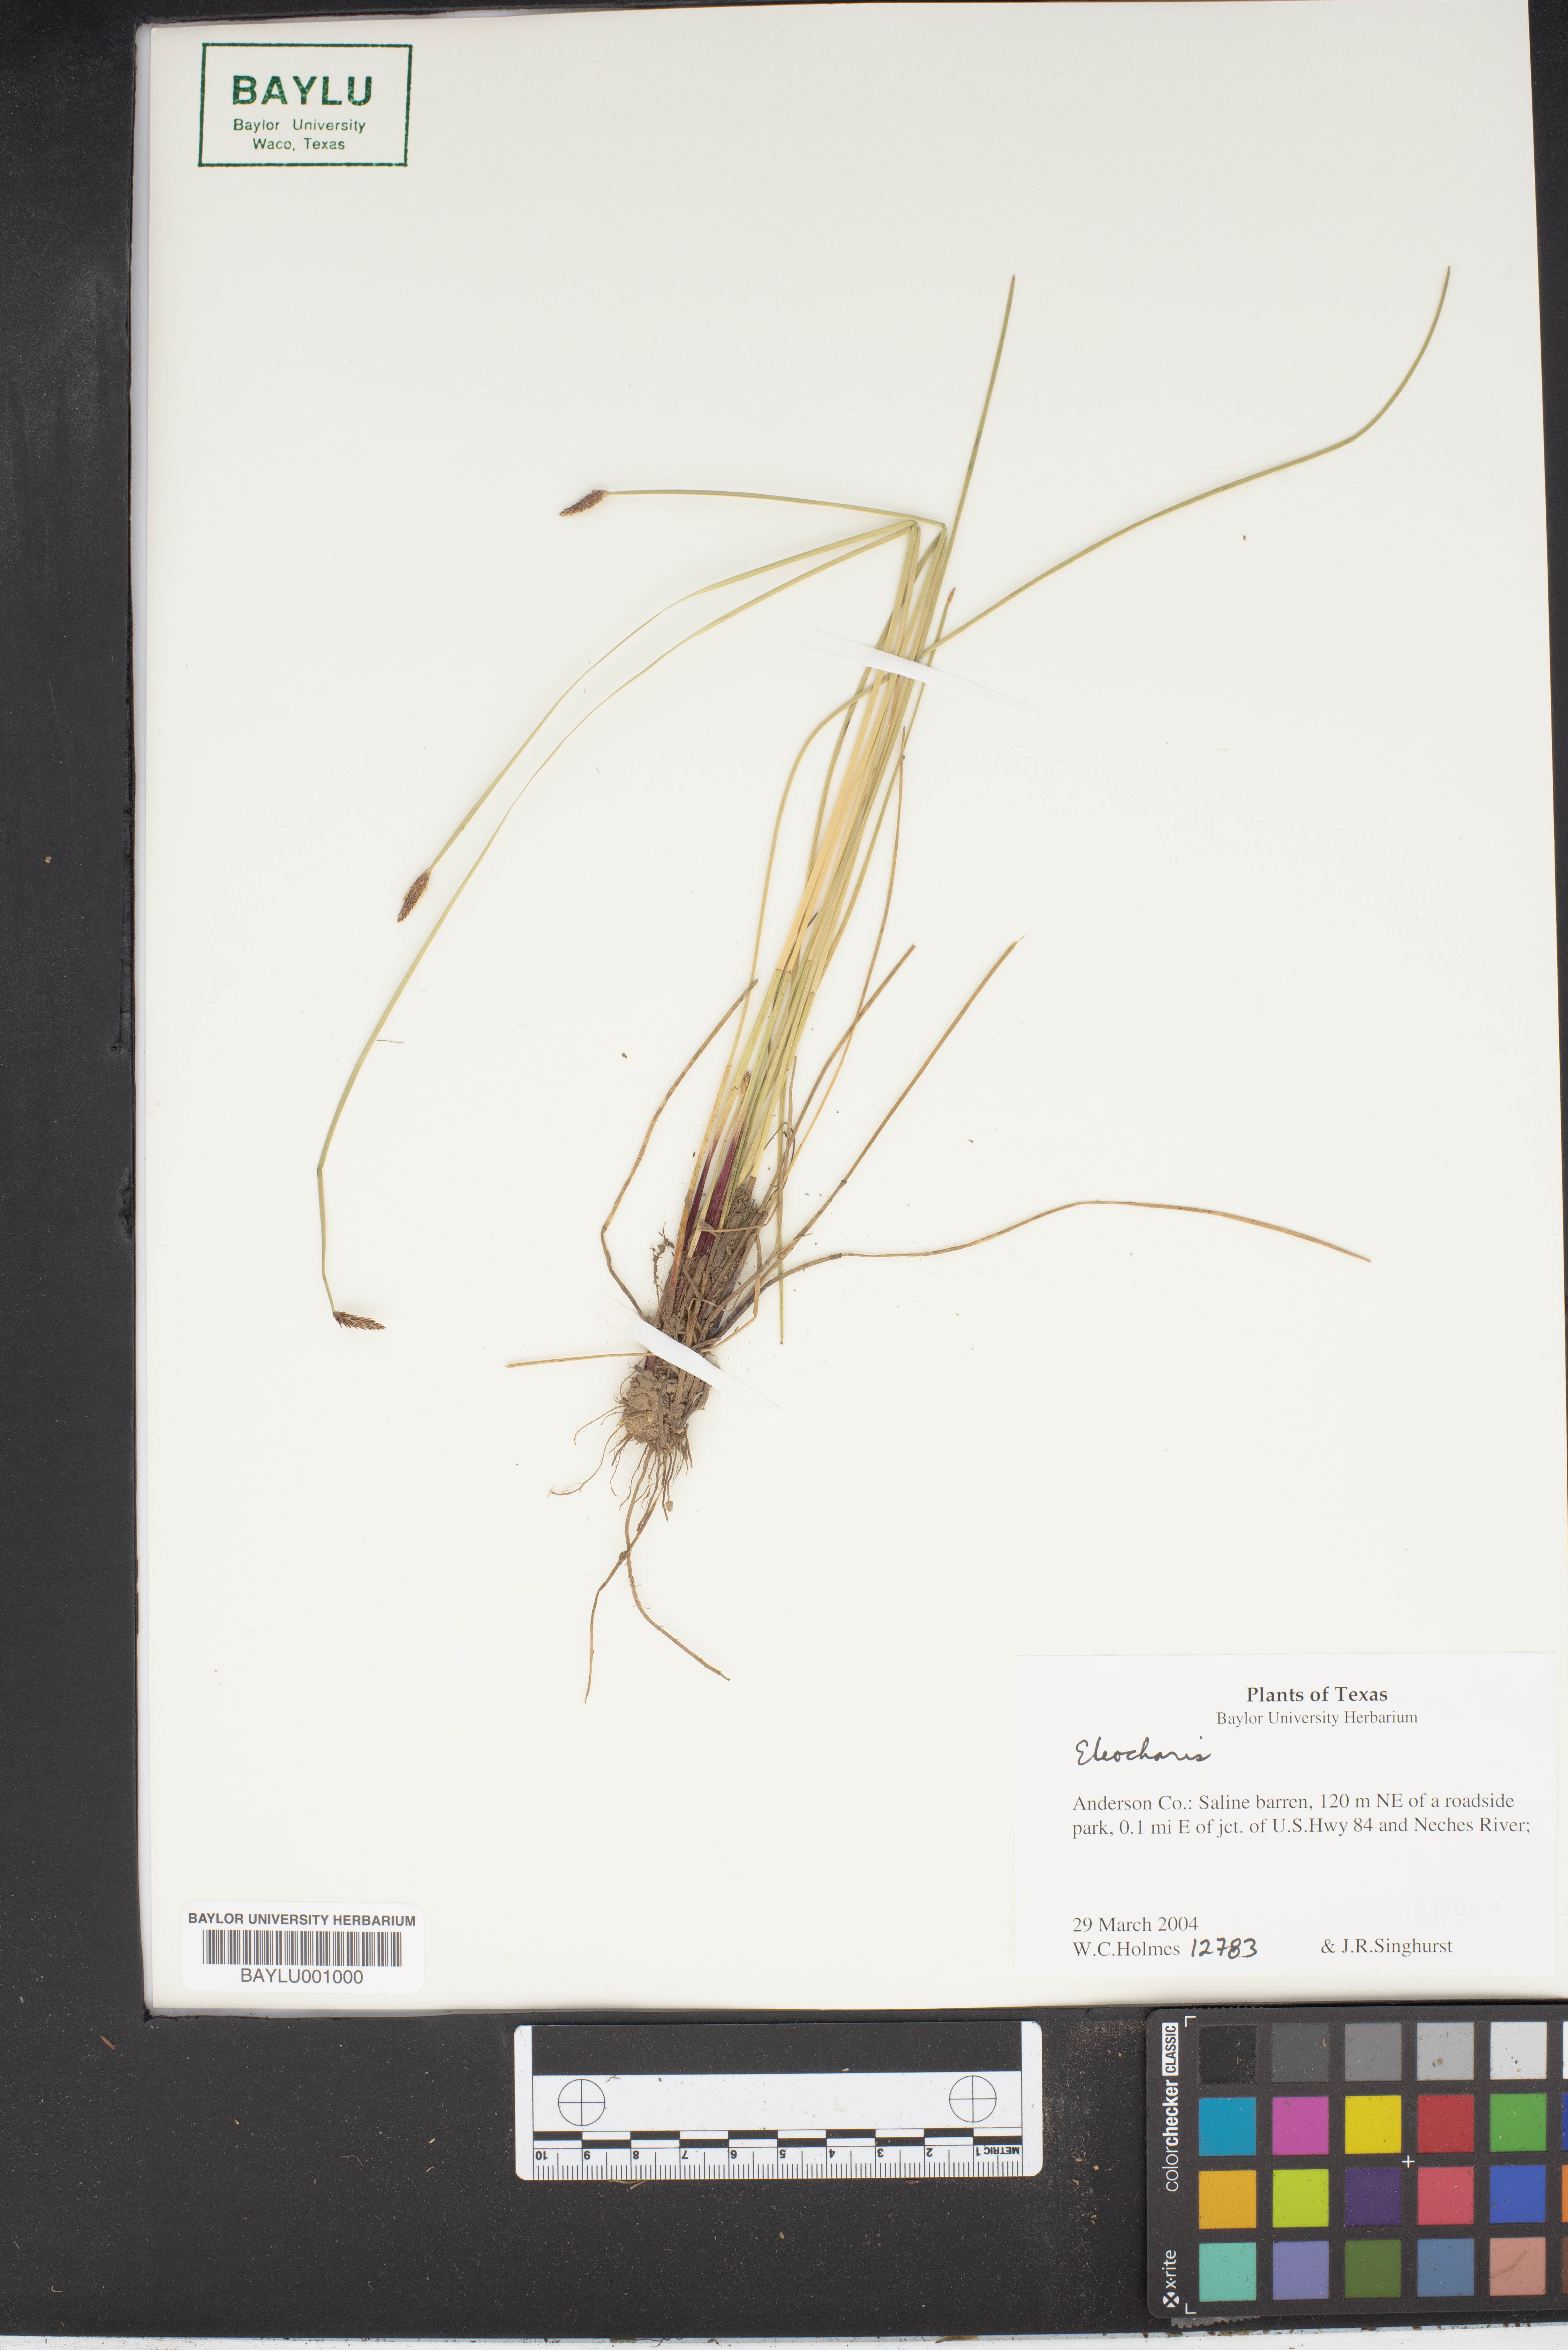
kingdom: Plantae
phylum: Tracheophyta
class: Liliopsida
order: Poales
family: Cyperaceae
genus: Eleocharis
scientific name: Eleocharis
